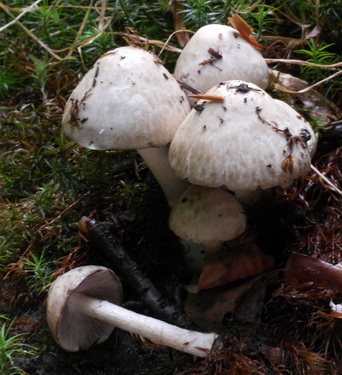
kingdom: Fungi
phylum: Basidiomycota
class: Agaricomycetes
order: Agaricales
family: Psathyrellaceae
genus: Psathyrella
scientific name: Psathyrella cotonea
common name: skællet mørkhat
